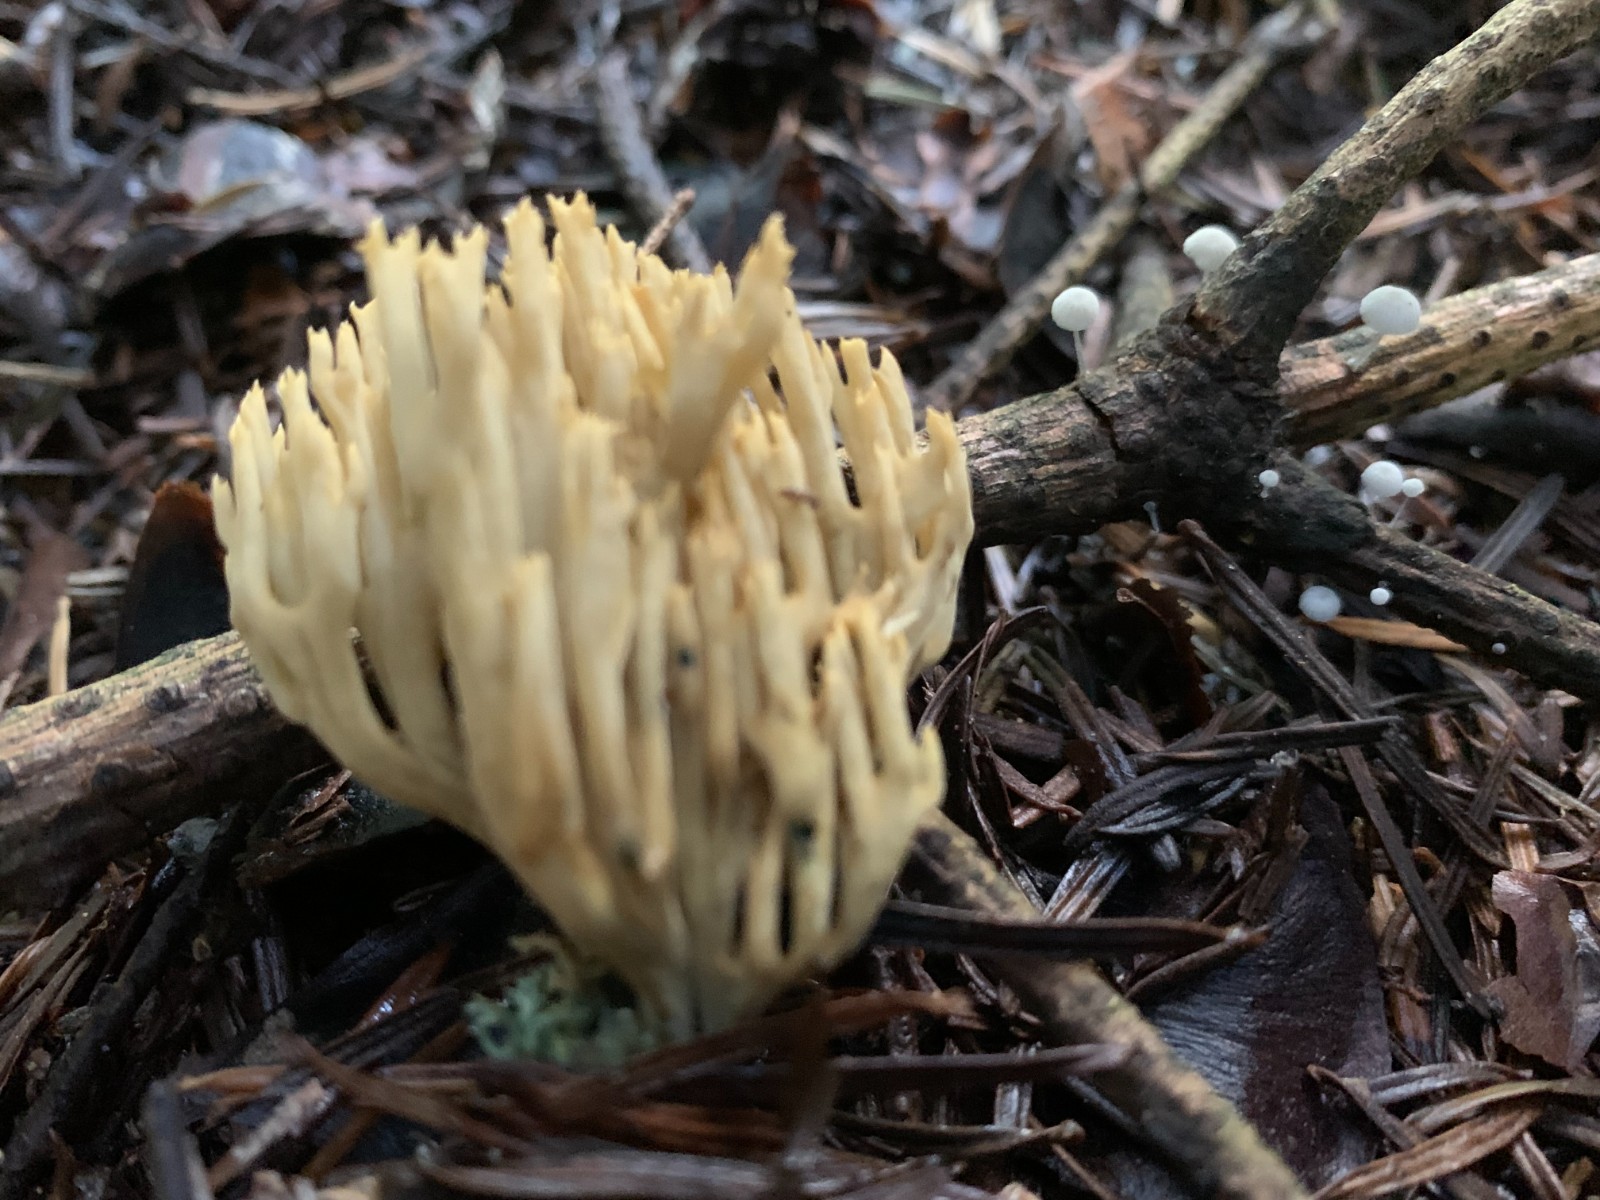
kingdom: Fungi
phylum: Basidiomycota
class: Agaricomycetes
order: Gomphales
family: Gomphaceae
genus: Phaeoclavulina
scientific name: Phaeoclavulina eumorpha
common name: gran-koralsvamp
